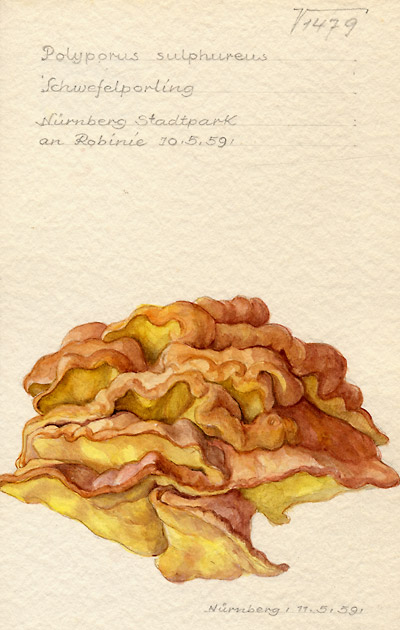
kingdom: Fungi
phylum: Basidiomycota
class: Agaricomycetes
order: Polyporales
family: Laetiporaceae
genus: Laetiporus
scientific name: Laetiporus sulphureus
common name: Chicken of the woods
